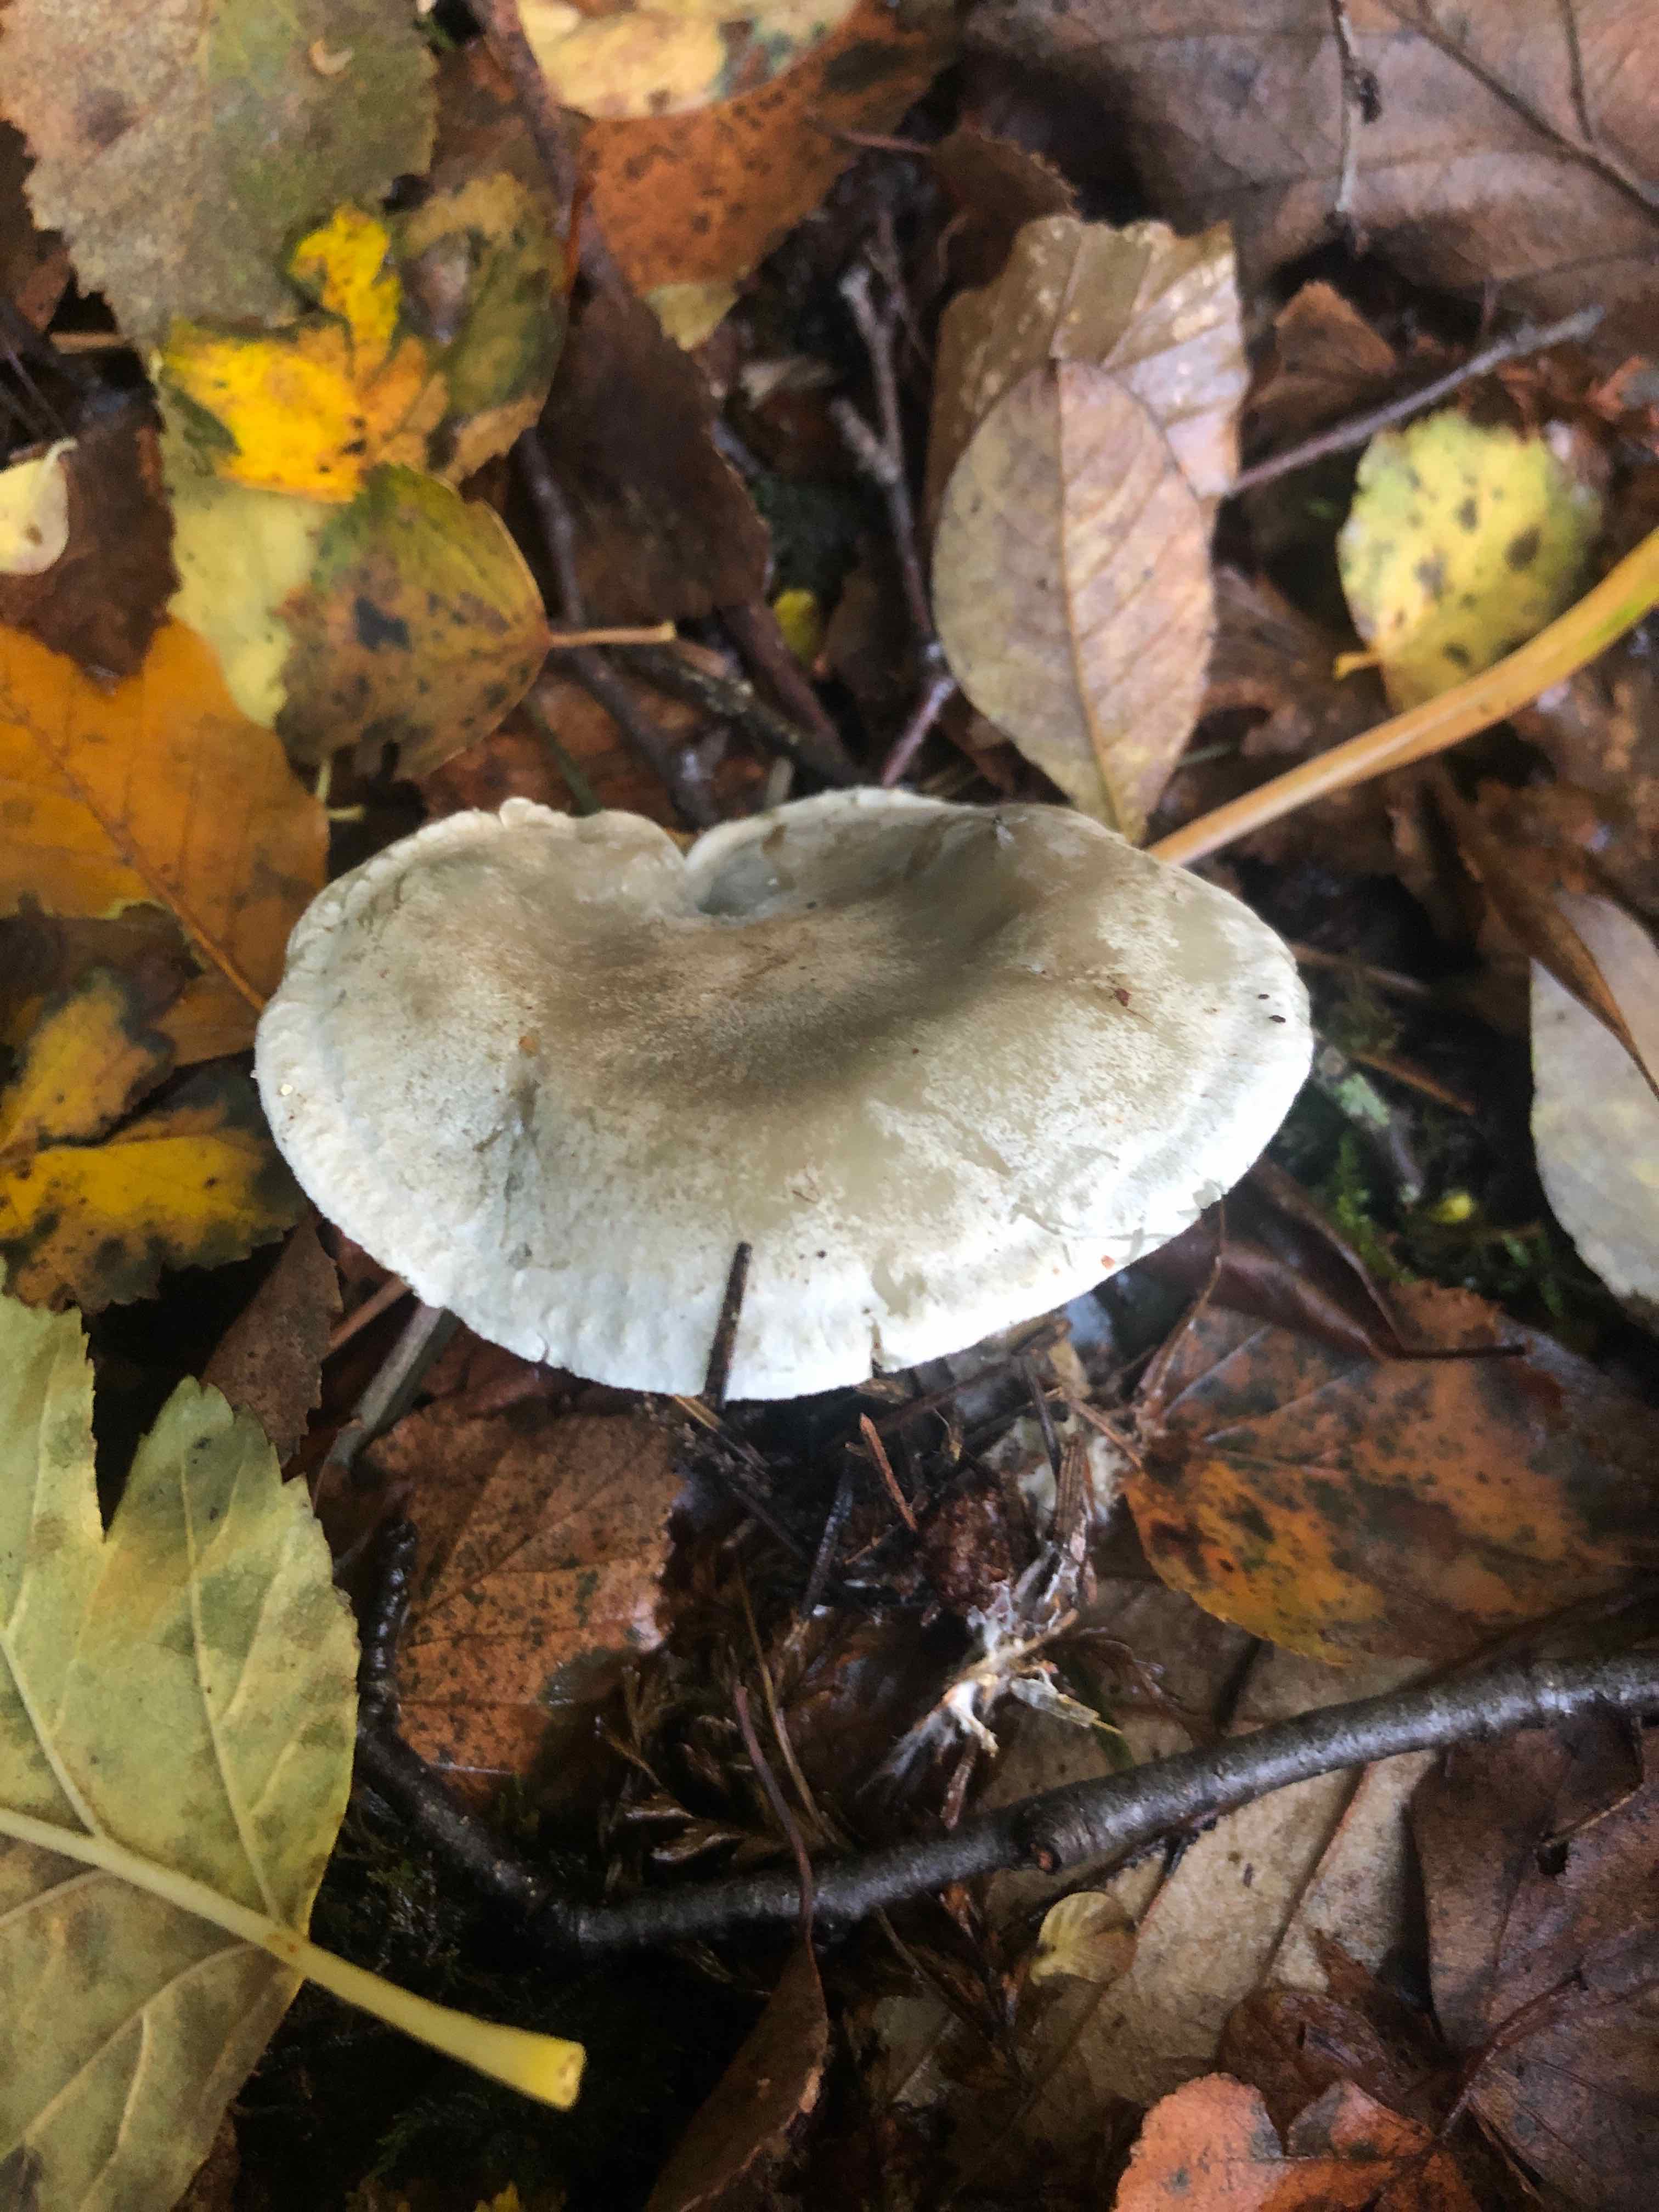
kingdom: Fungi
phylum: Basidiomycota
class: Agaricomycetes
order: Agaricales
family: Tricholomataceae
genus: Clitocybe
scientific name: Clitocybe odora
